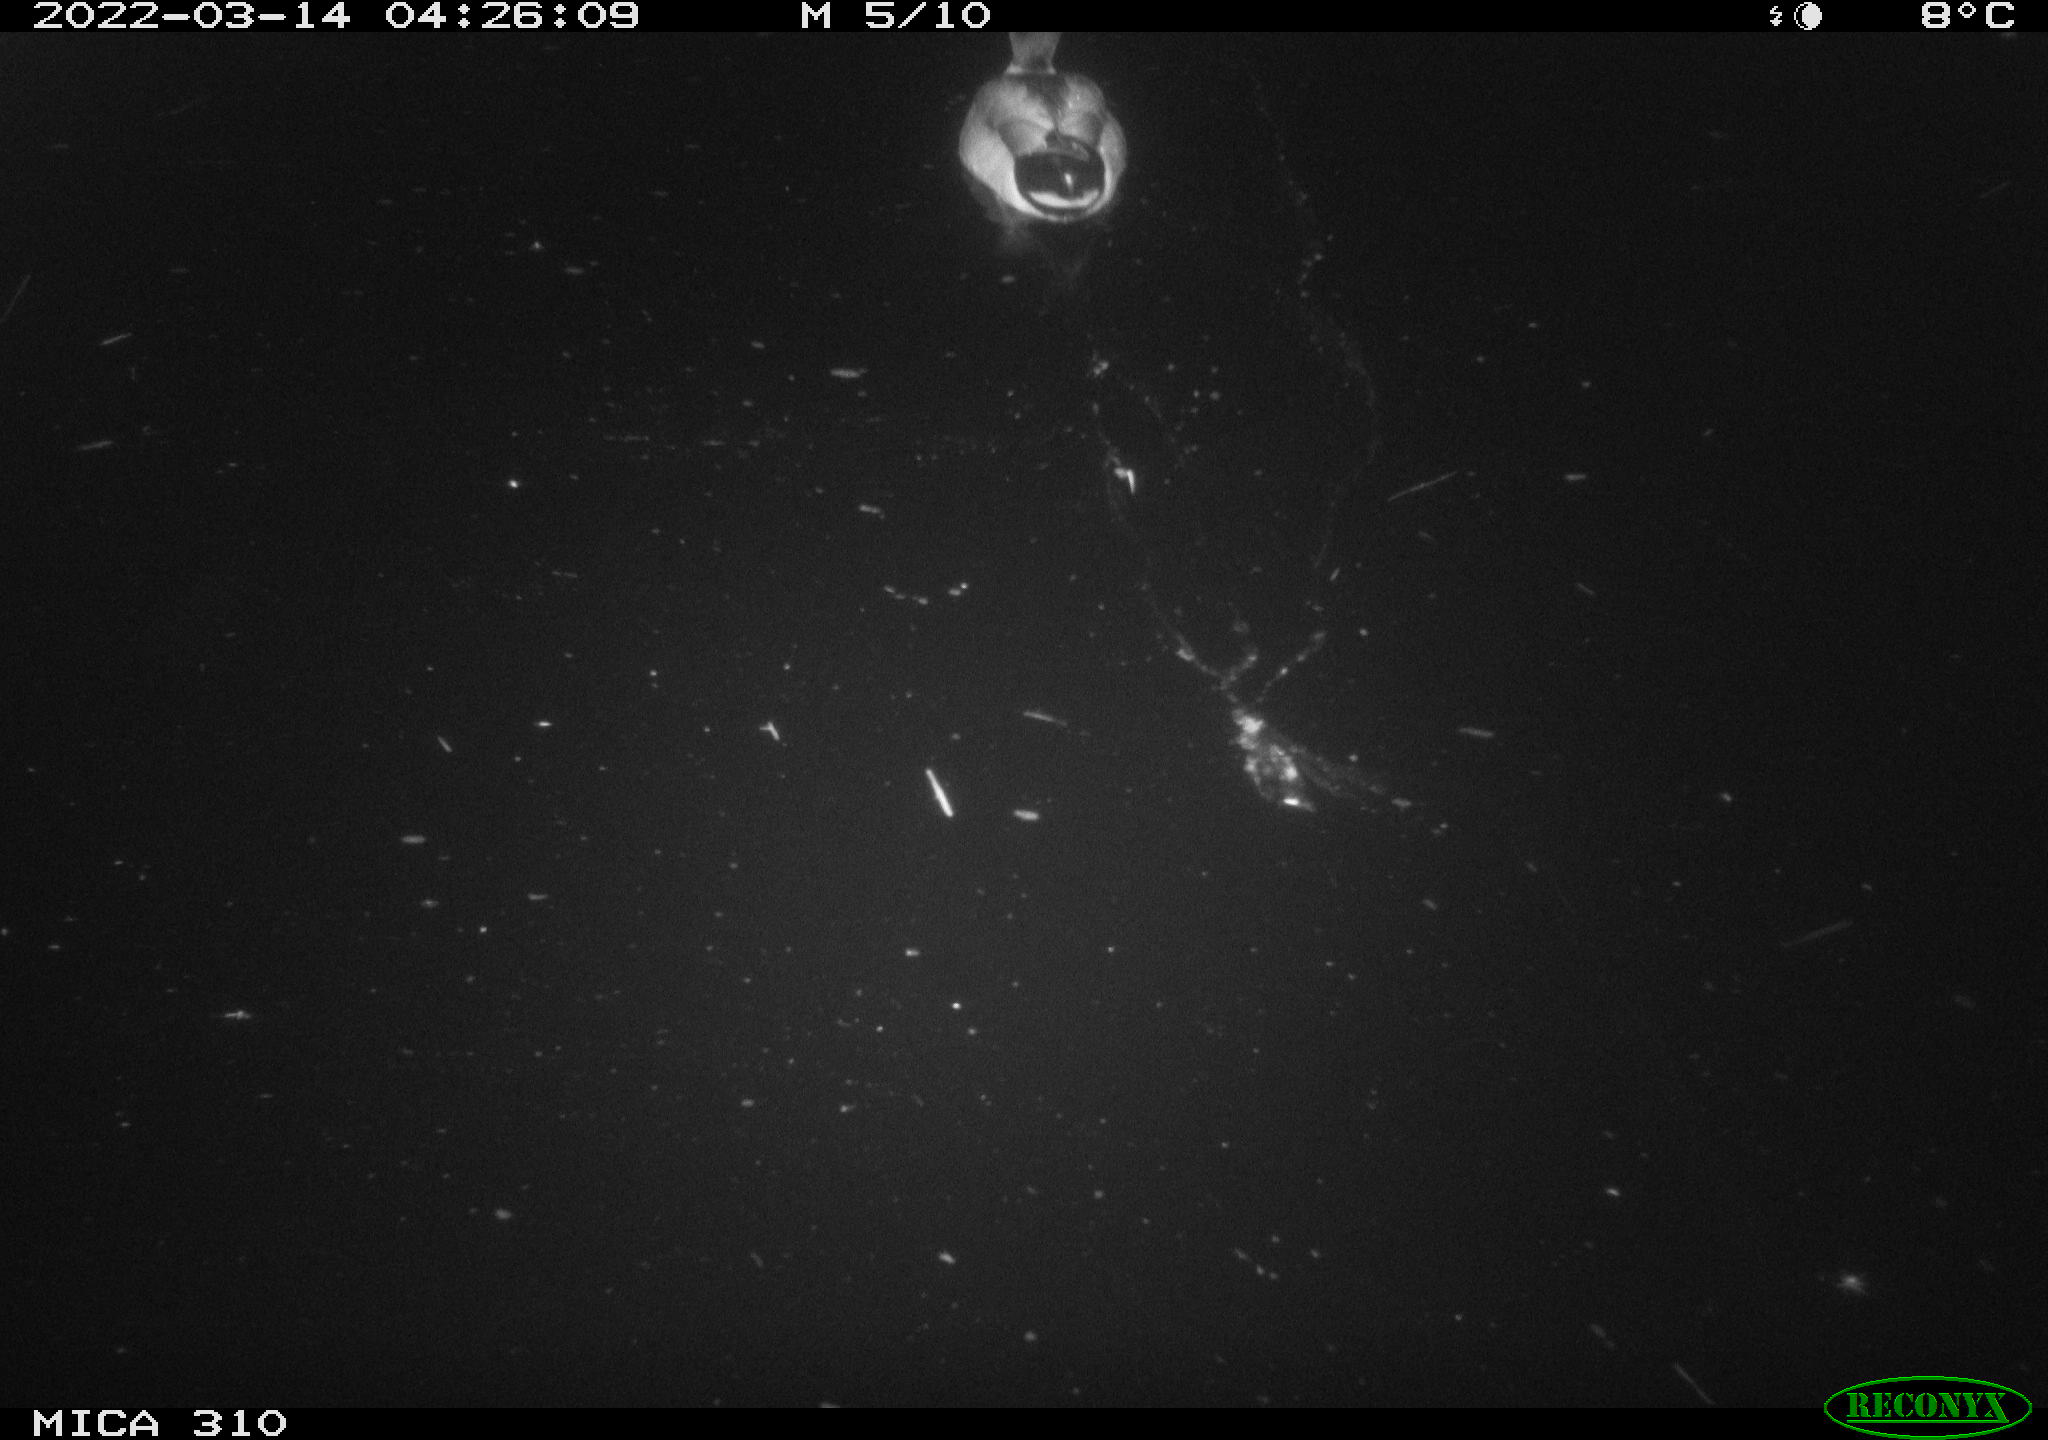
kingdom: Animalia
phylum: Chordata
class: Aves
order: Anseriformes
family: Anatidae
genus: Anas
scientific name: Anas platyrhynchos
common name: Mallard
